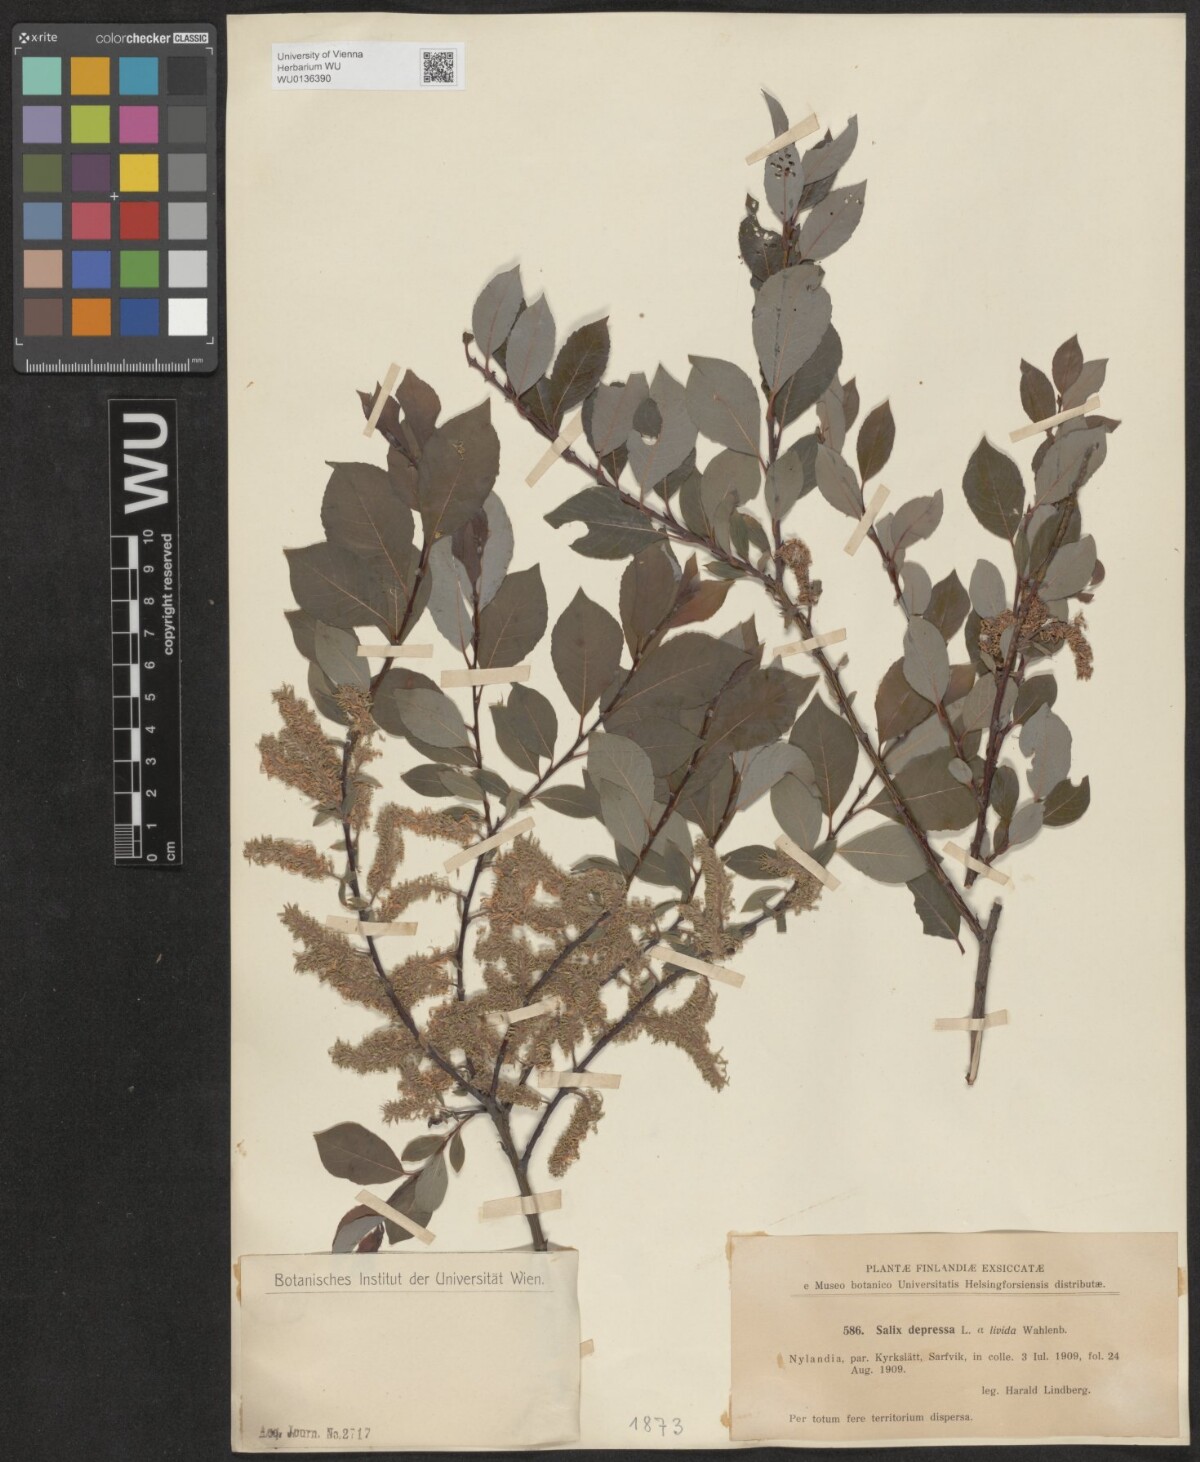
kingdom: Plantae
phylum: Tracheophyta
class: Magnoliopsida
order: Malpighiales
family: Salicaceae
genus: Salix
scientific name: Salix lanata
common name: Woolly willow
